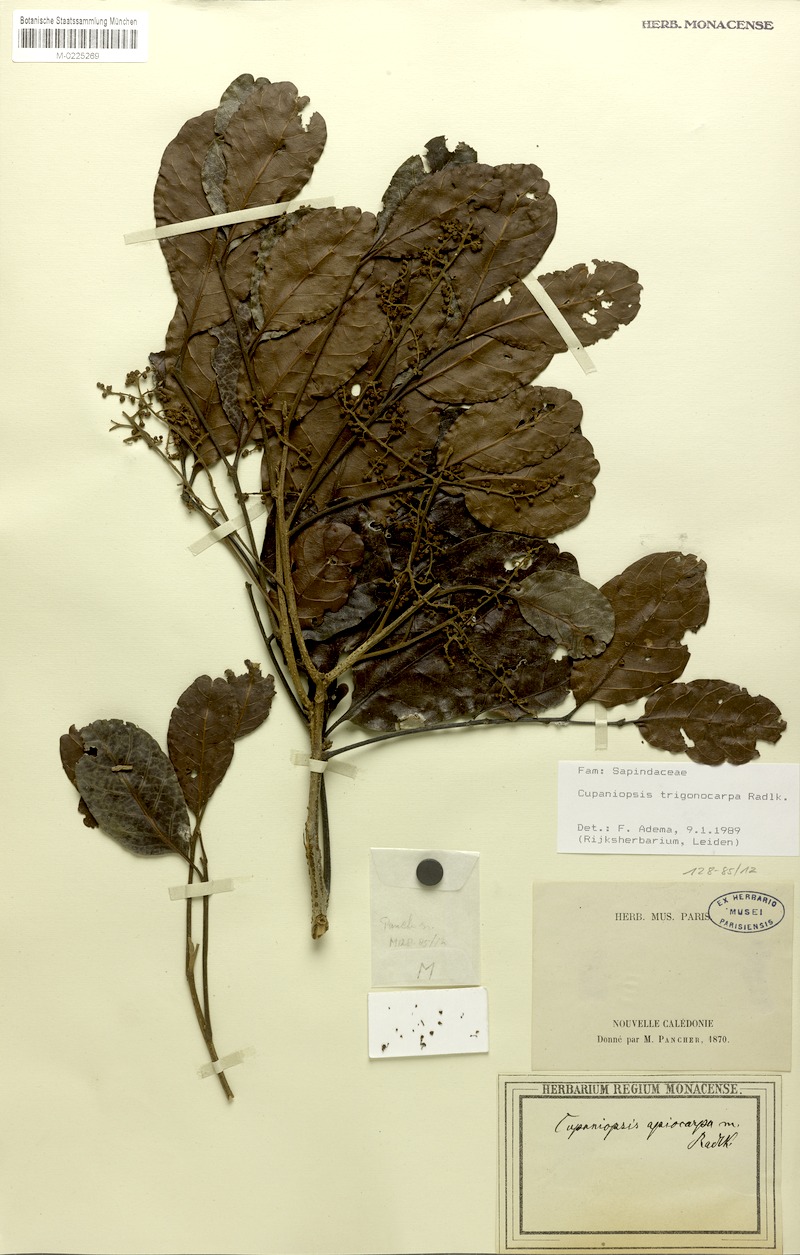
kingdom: Plantae
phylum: Tracheophyta
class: Magnoliopsida
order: Sapindales
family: Sapindaceae
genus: Cupaniopsis
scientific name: Cupaniopsis trigonocarpa
